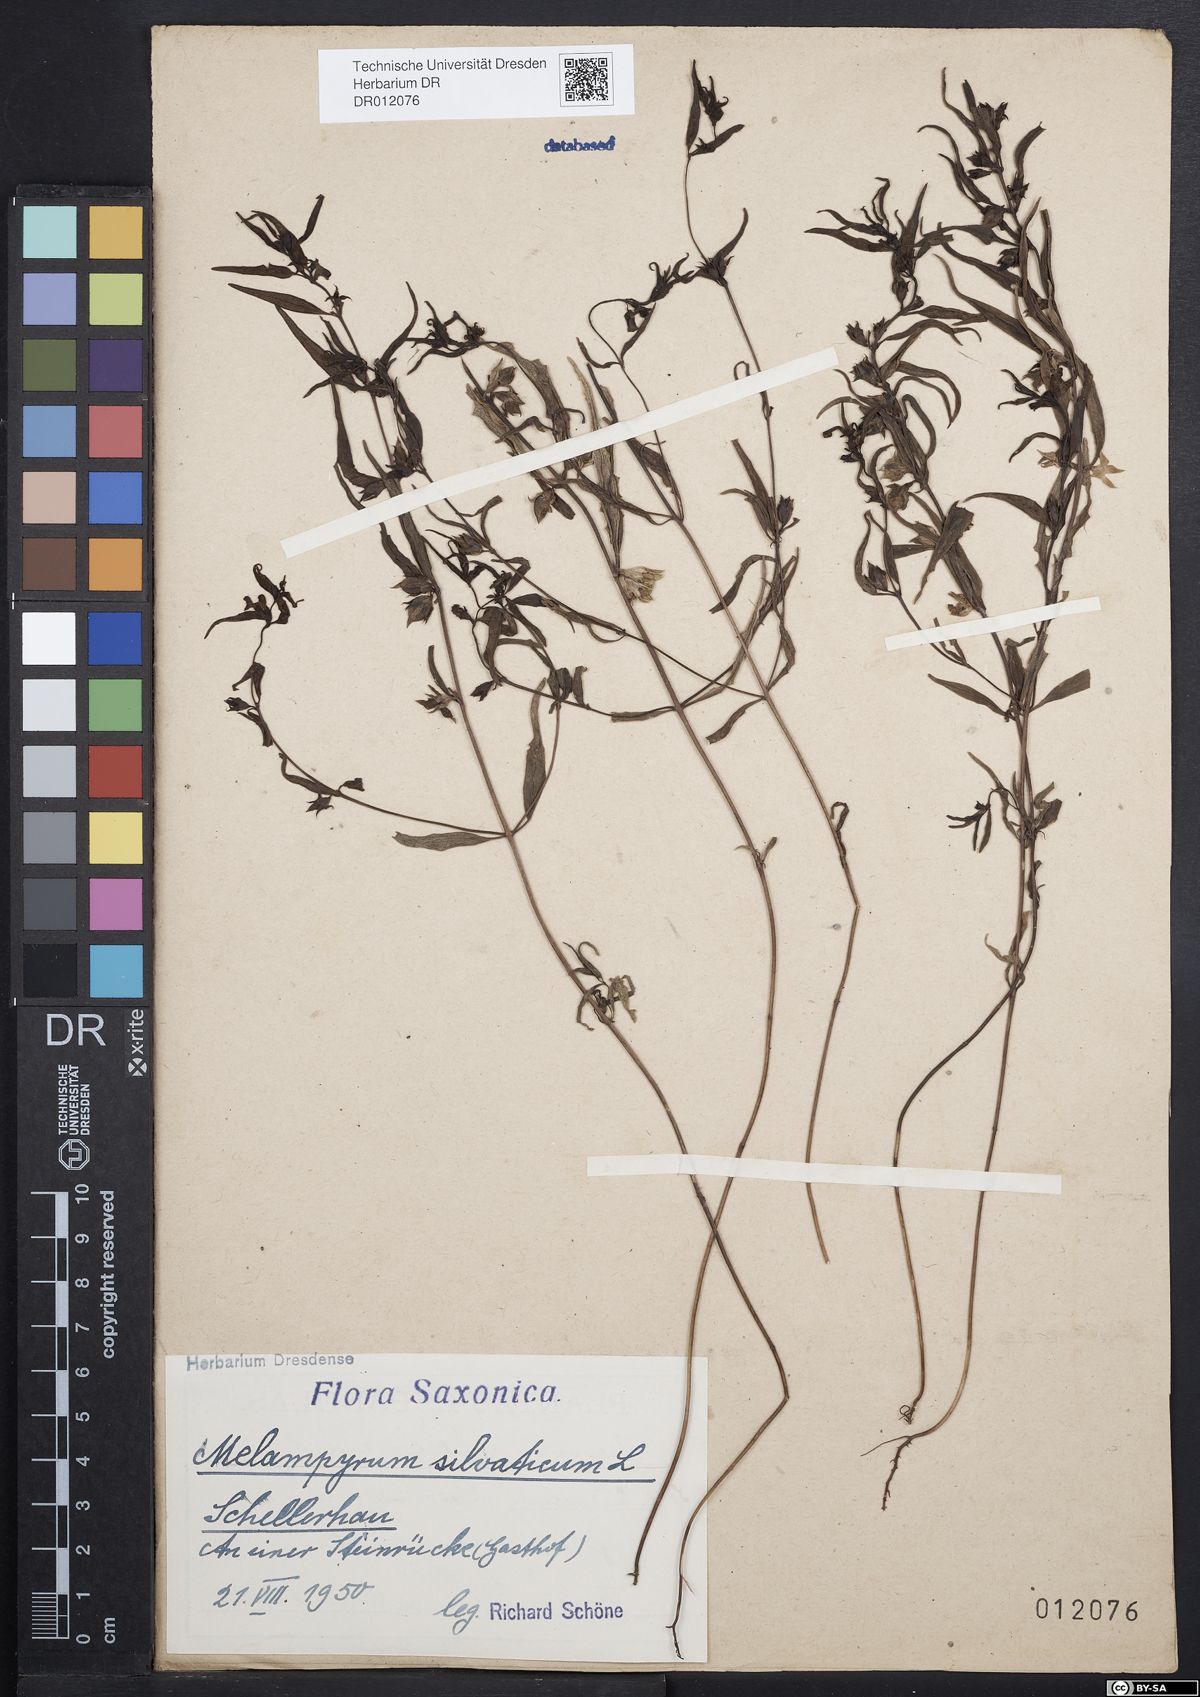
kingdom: Plantae
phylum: Tracheophyta
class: Magnoliopsida
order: Lamiales
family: Orobanchaceae
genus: Melampyrum
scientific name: Melampyrum sylvaticum
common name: Small cow-wheat
